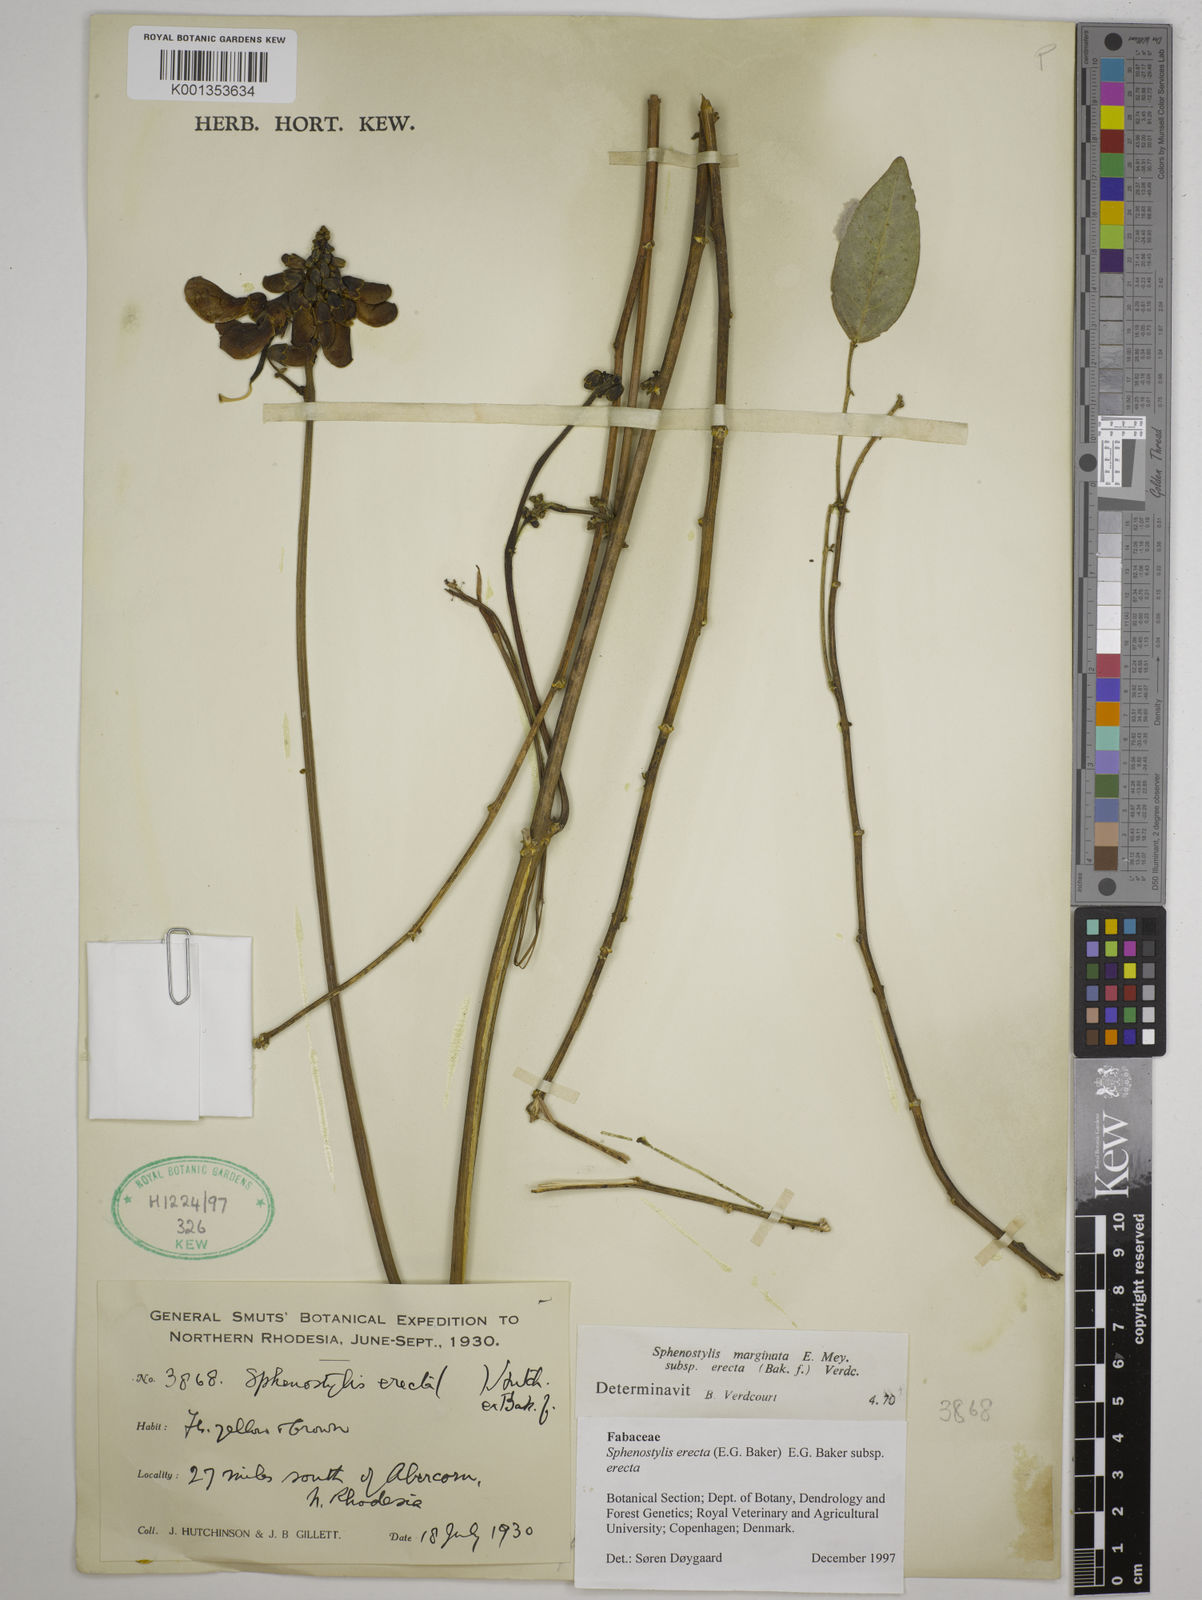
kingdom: Plantae
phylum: Tracheophyta
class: Magnoliopsida
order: Fabales
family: Fabaceae
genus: Sphenostylis
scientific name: Sphenostylis erecta
